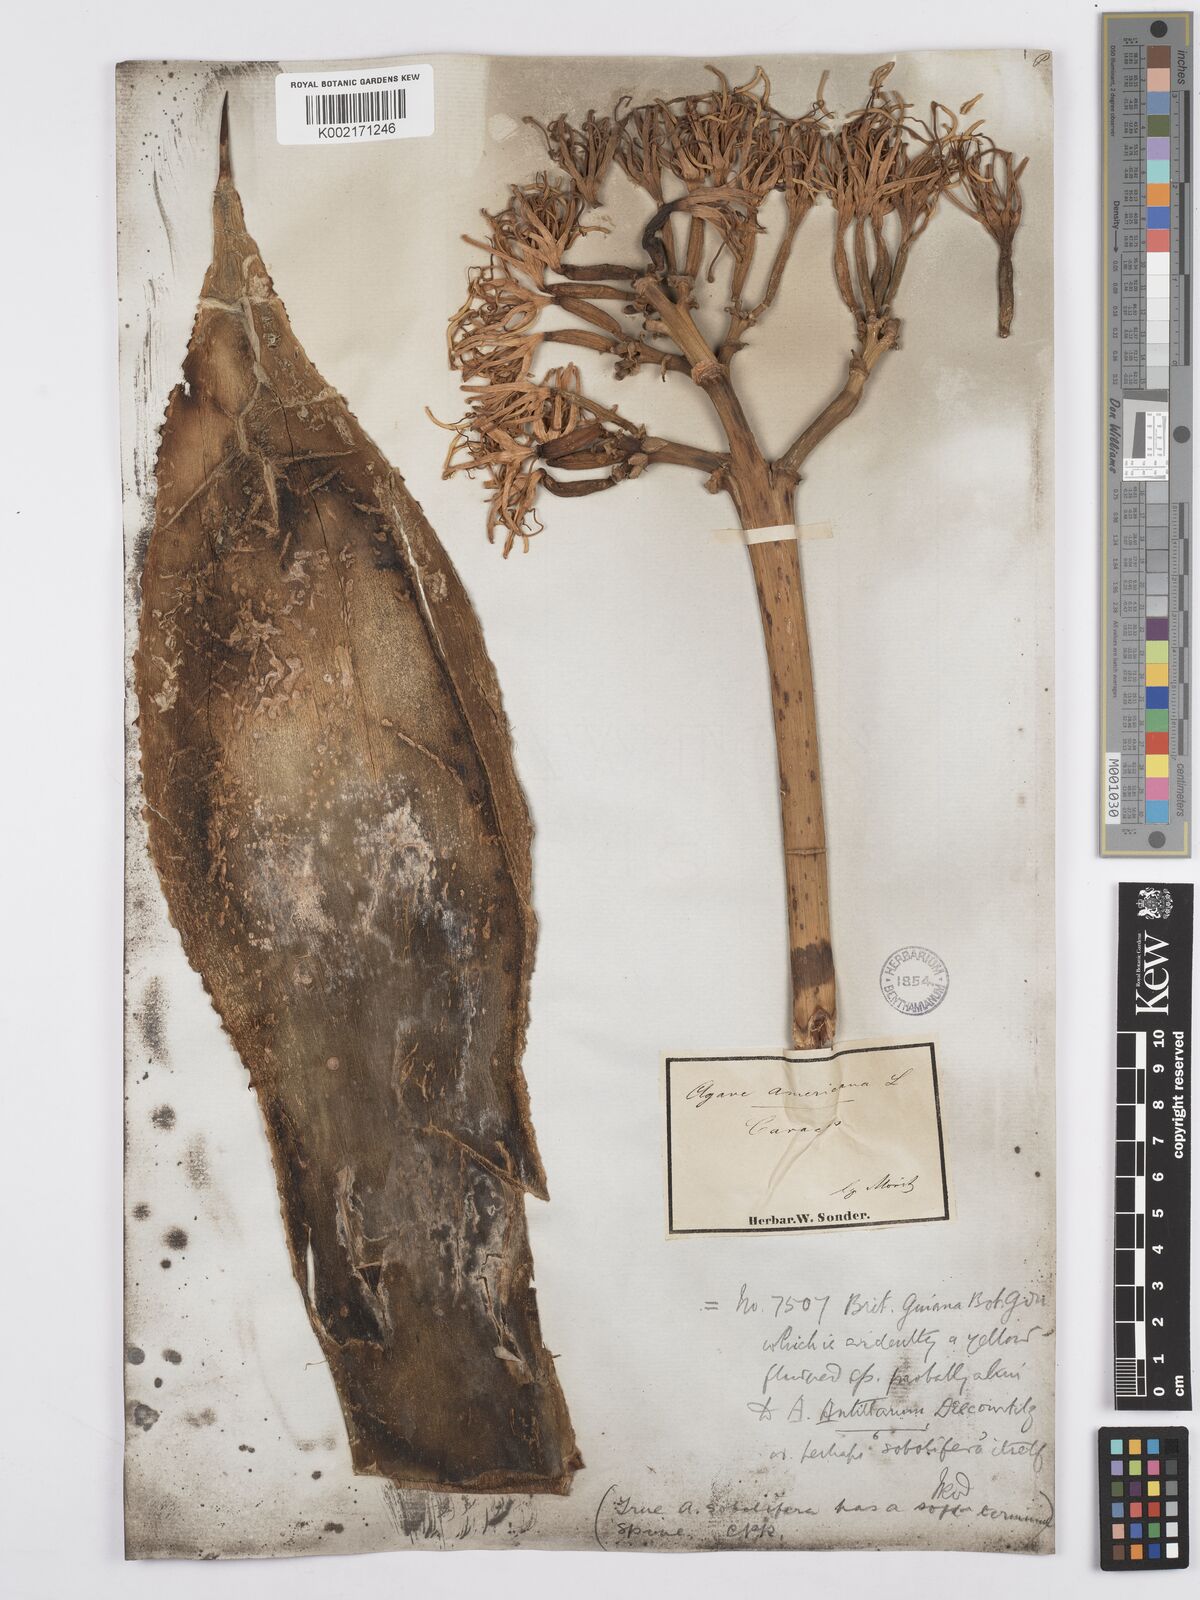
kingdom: Plantae
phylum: Tracheophyta
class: Liliopsida
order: Asparagales
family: Asparagaceae
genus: Agave
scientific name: Agave americana
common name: Centuryplant
